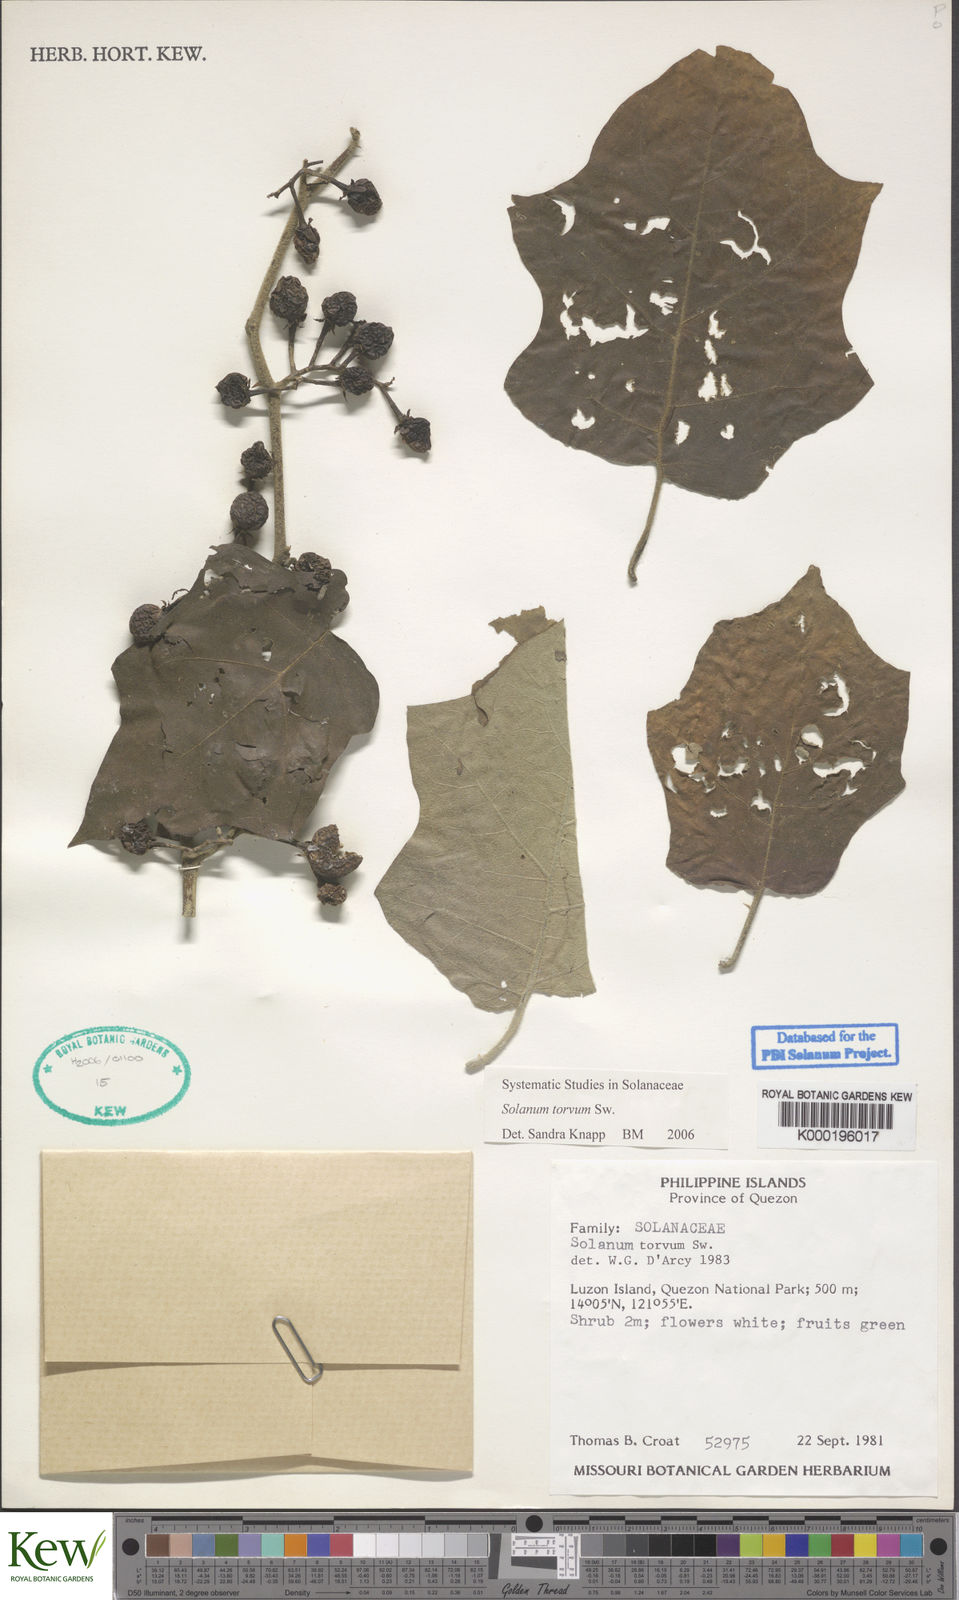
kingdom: Plantae
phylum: Tracheophyta
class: Magnoliopsida
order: Solanales
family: Solanaceae
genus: Solanum
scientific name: Solanum torvum
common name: Turkey berry
